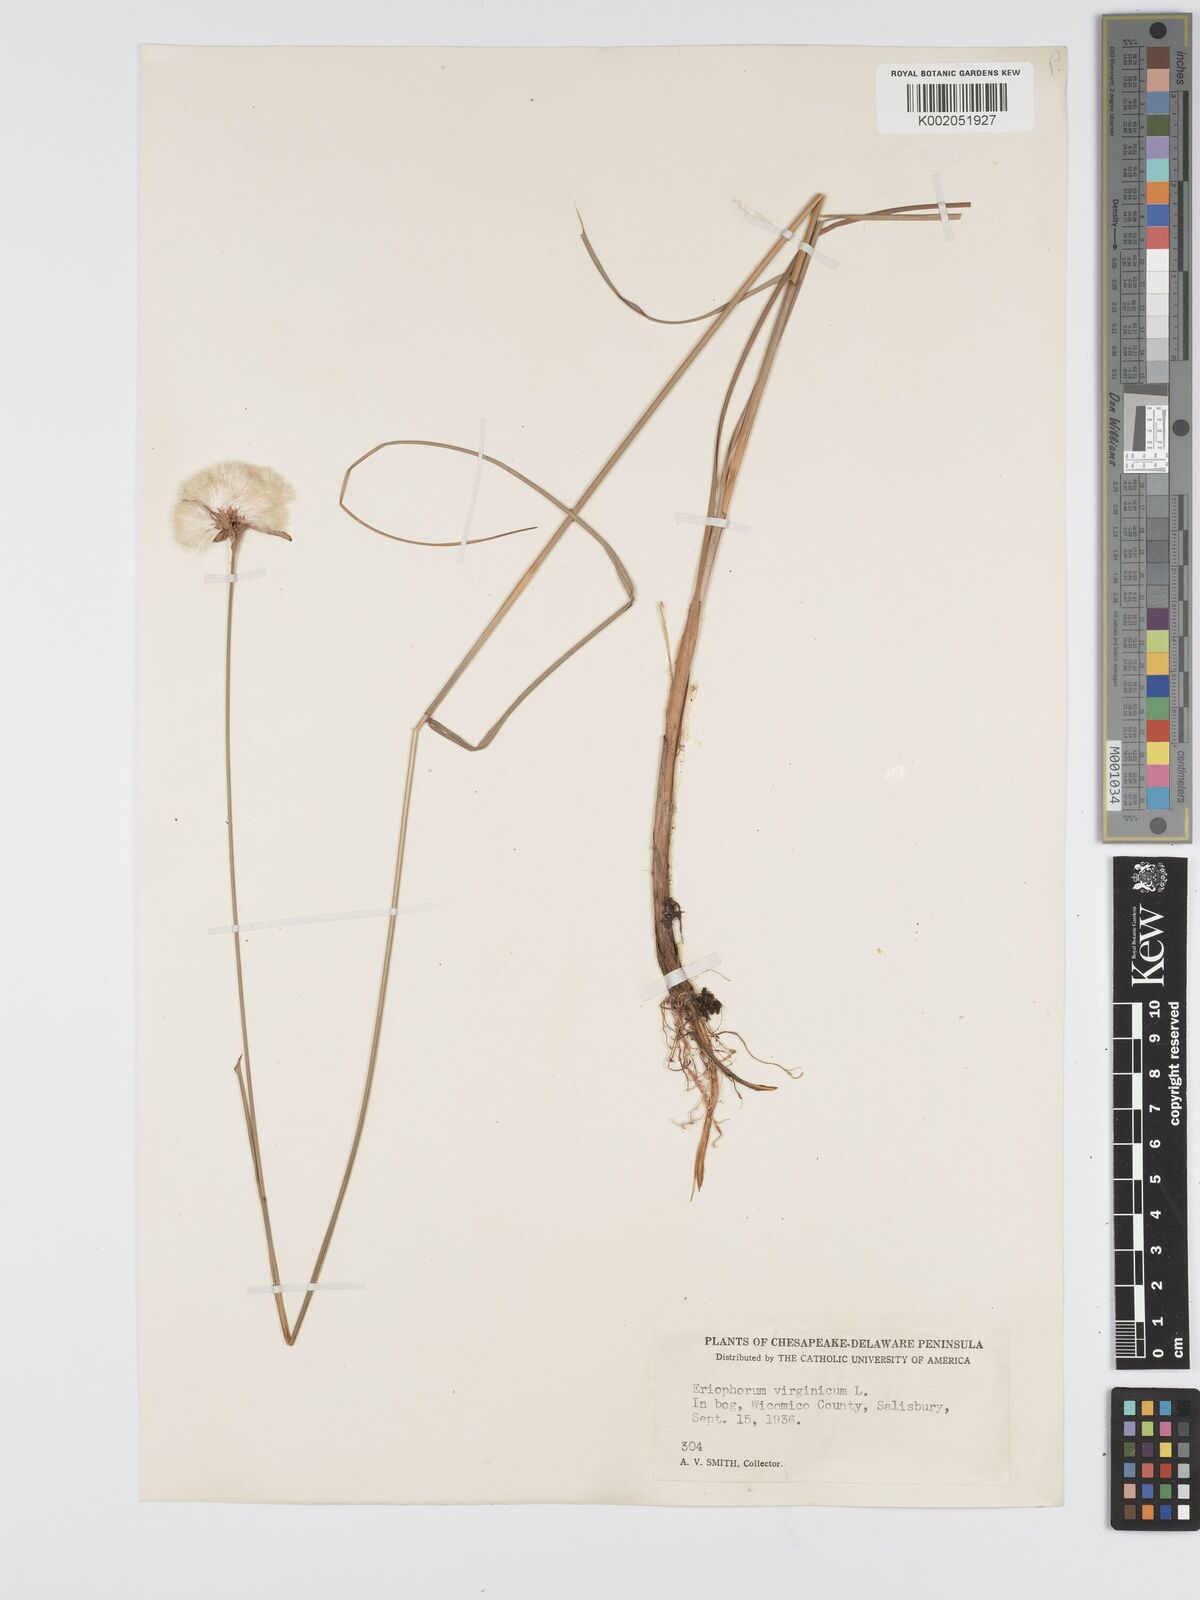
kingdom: Plantae
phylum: Tracheophyta
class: Liliopsida
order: Poales
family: Cyperaceae
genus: Eriophorum
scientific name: Eriophorum virginicum
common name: Tawny cottongrass
